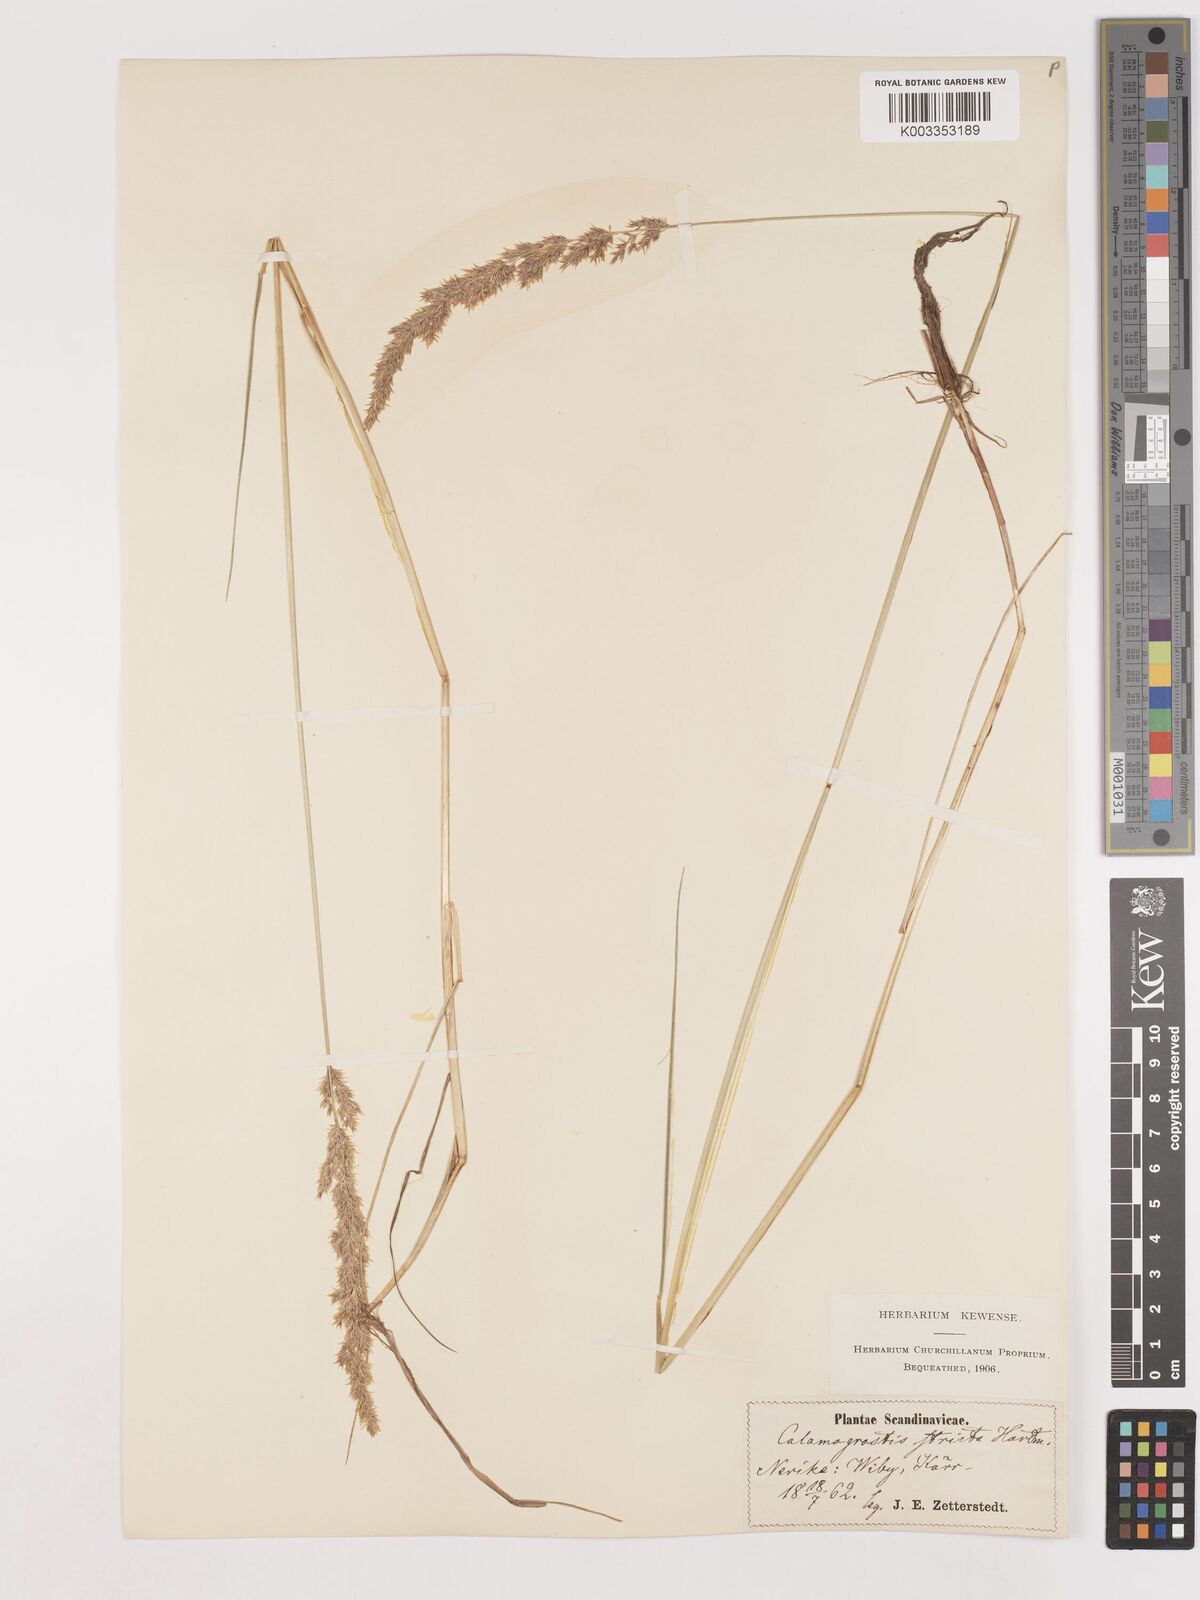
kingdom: Plantae
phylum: Tracheophyta
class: Liliopsida
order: Poales
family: Poaceae
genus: Cinnagrostis
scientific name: Cinnagrostis recta
